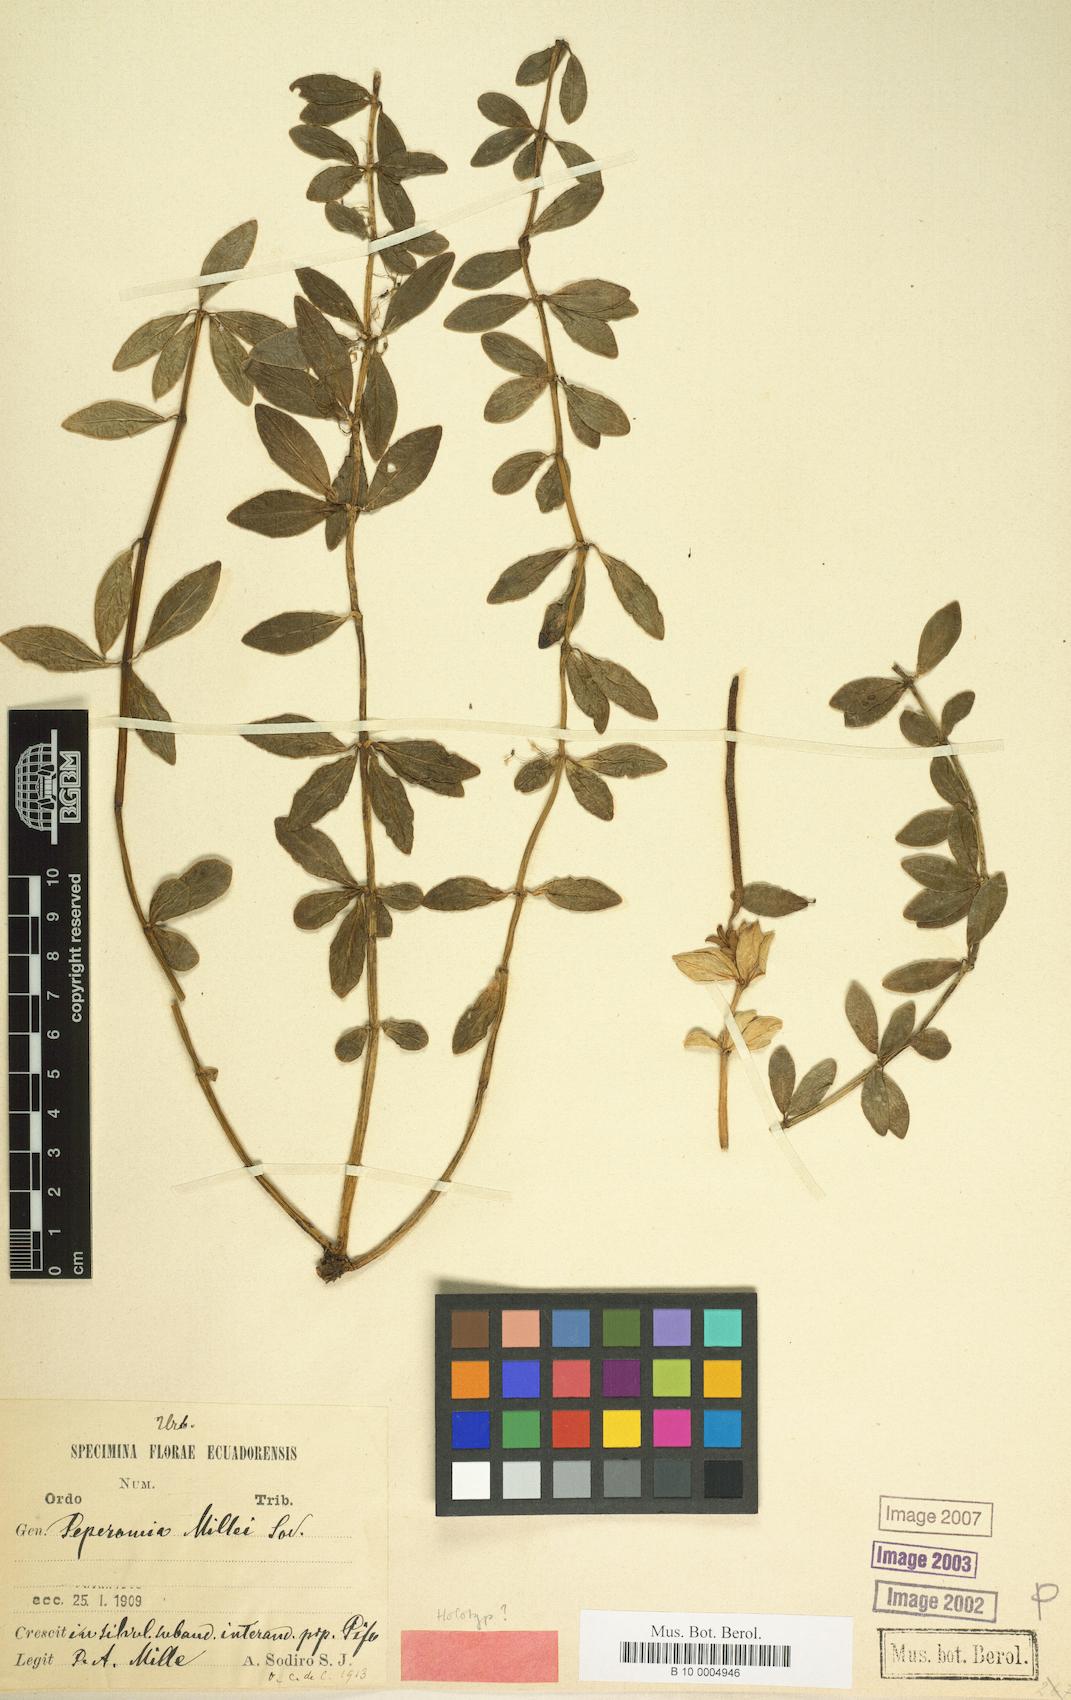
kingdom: Plantae
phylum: Tracheophyta
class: Magnoliopsida
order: Piperales
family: Piperaceae
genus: Peperomia
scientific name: Peperomia millei
